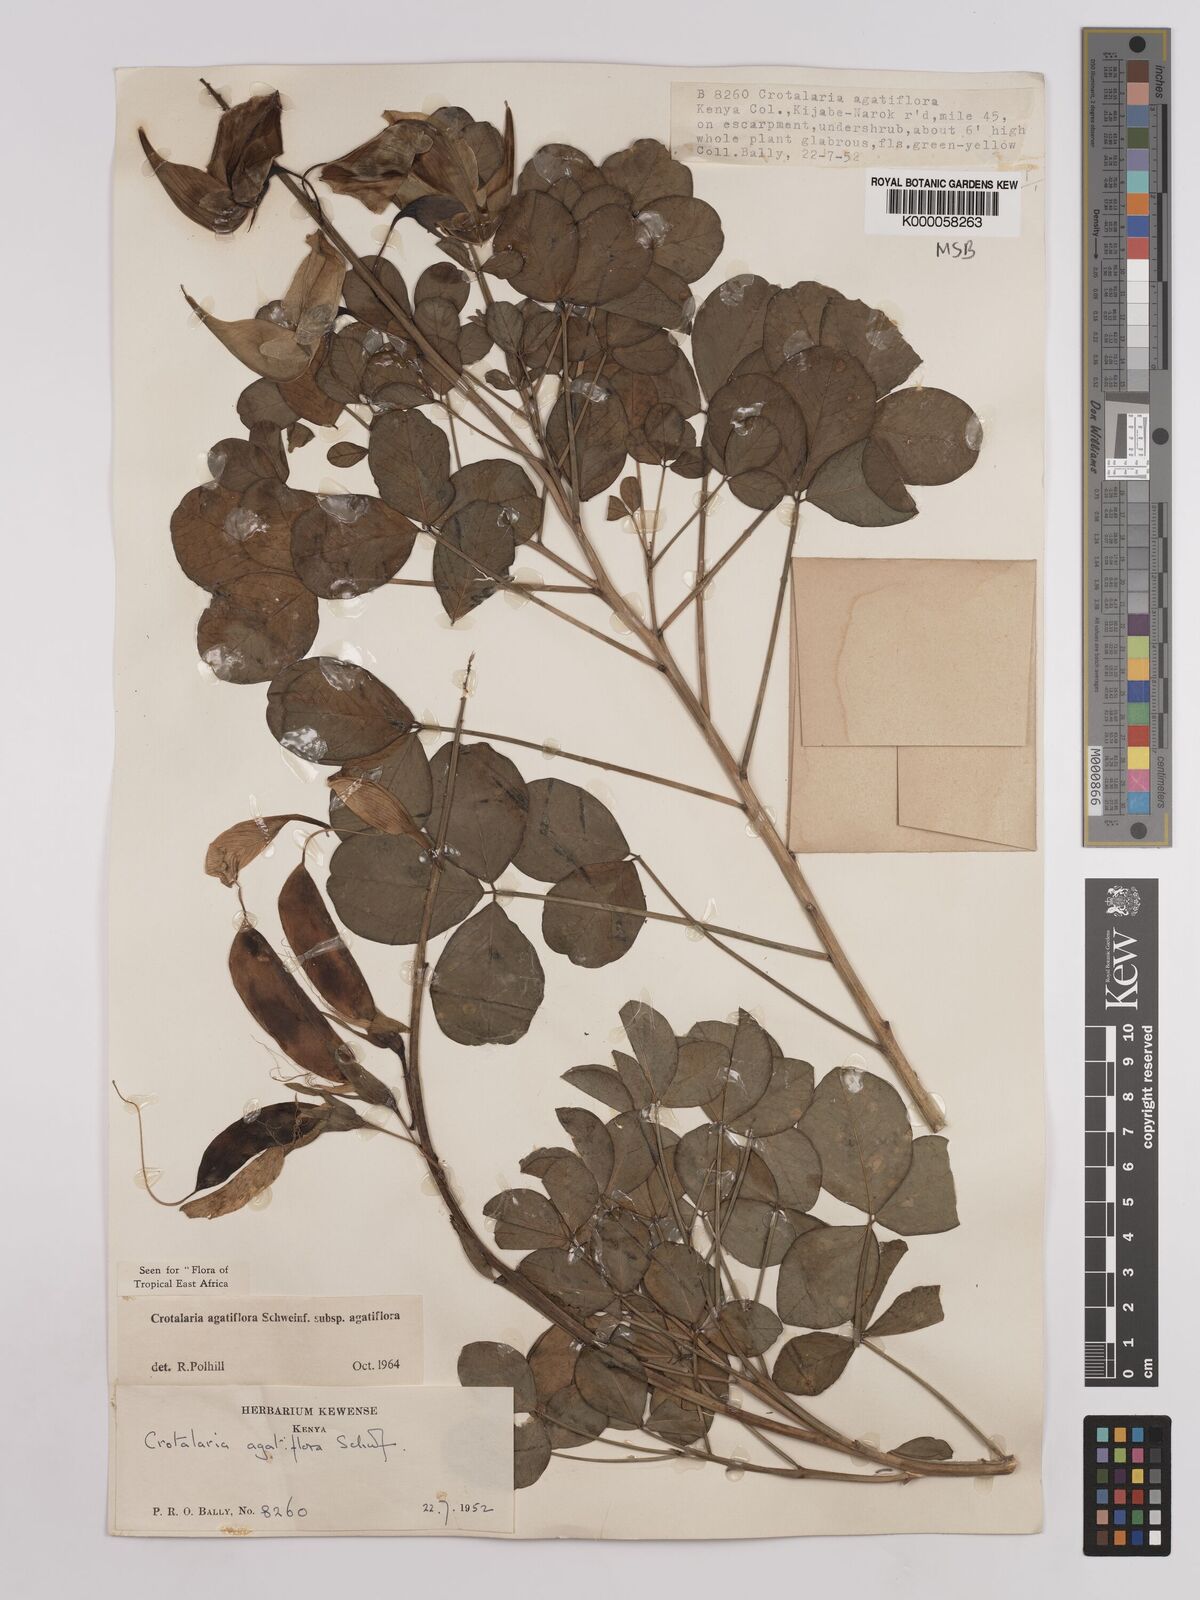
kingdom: Plantae
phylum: Tracheophyta
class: Magnoliopsida
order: Fabales
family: Fabaceae
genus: Crotalaria
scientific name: Crotalaria agatiflora
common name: Birdflower
